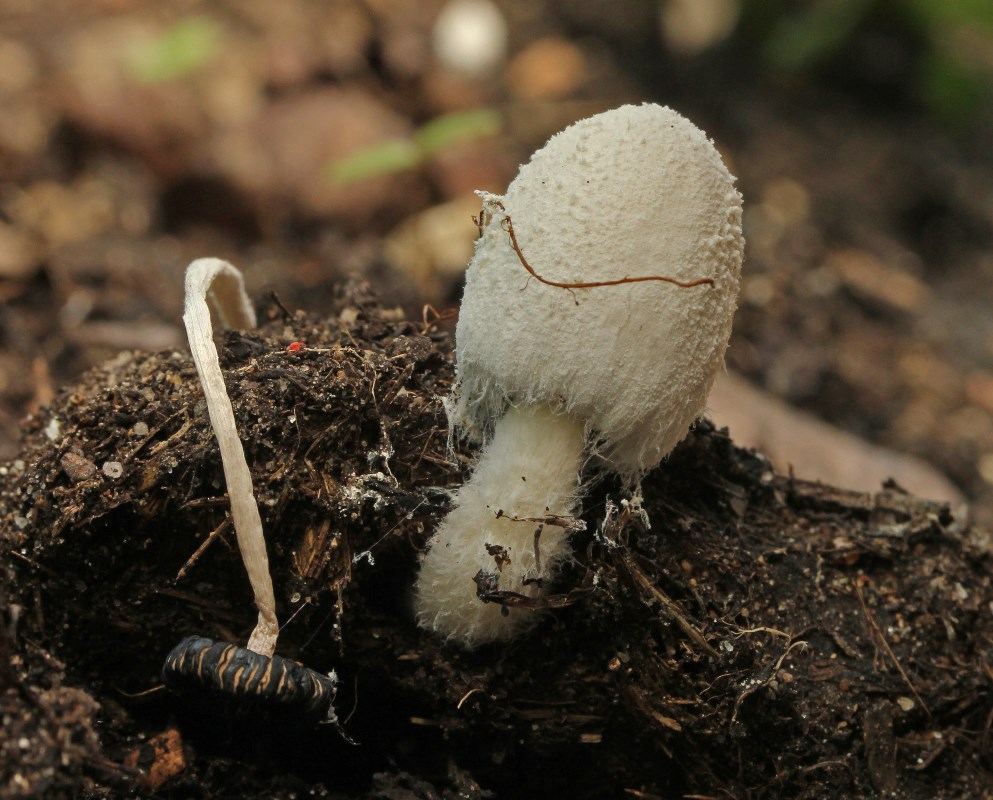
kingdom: Fungi
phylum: Basidiomycota
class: Agaricomycetes
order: Agaricales
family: Psathyrellaceae
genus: Coprinopsis
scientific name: Coprinopsis nivea
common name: snehvid blækhat
